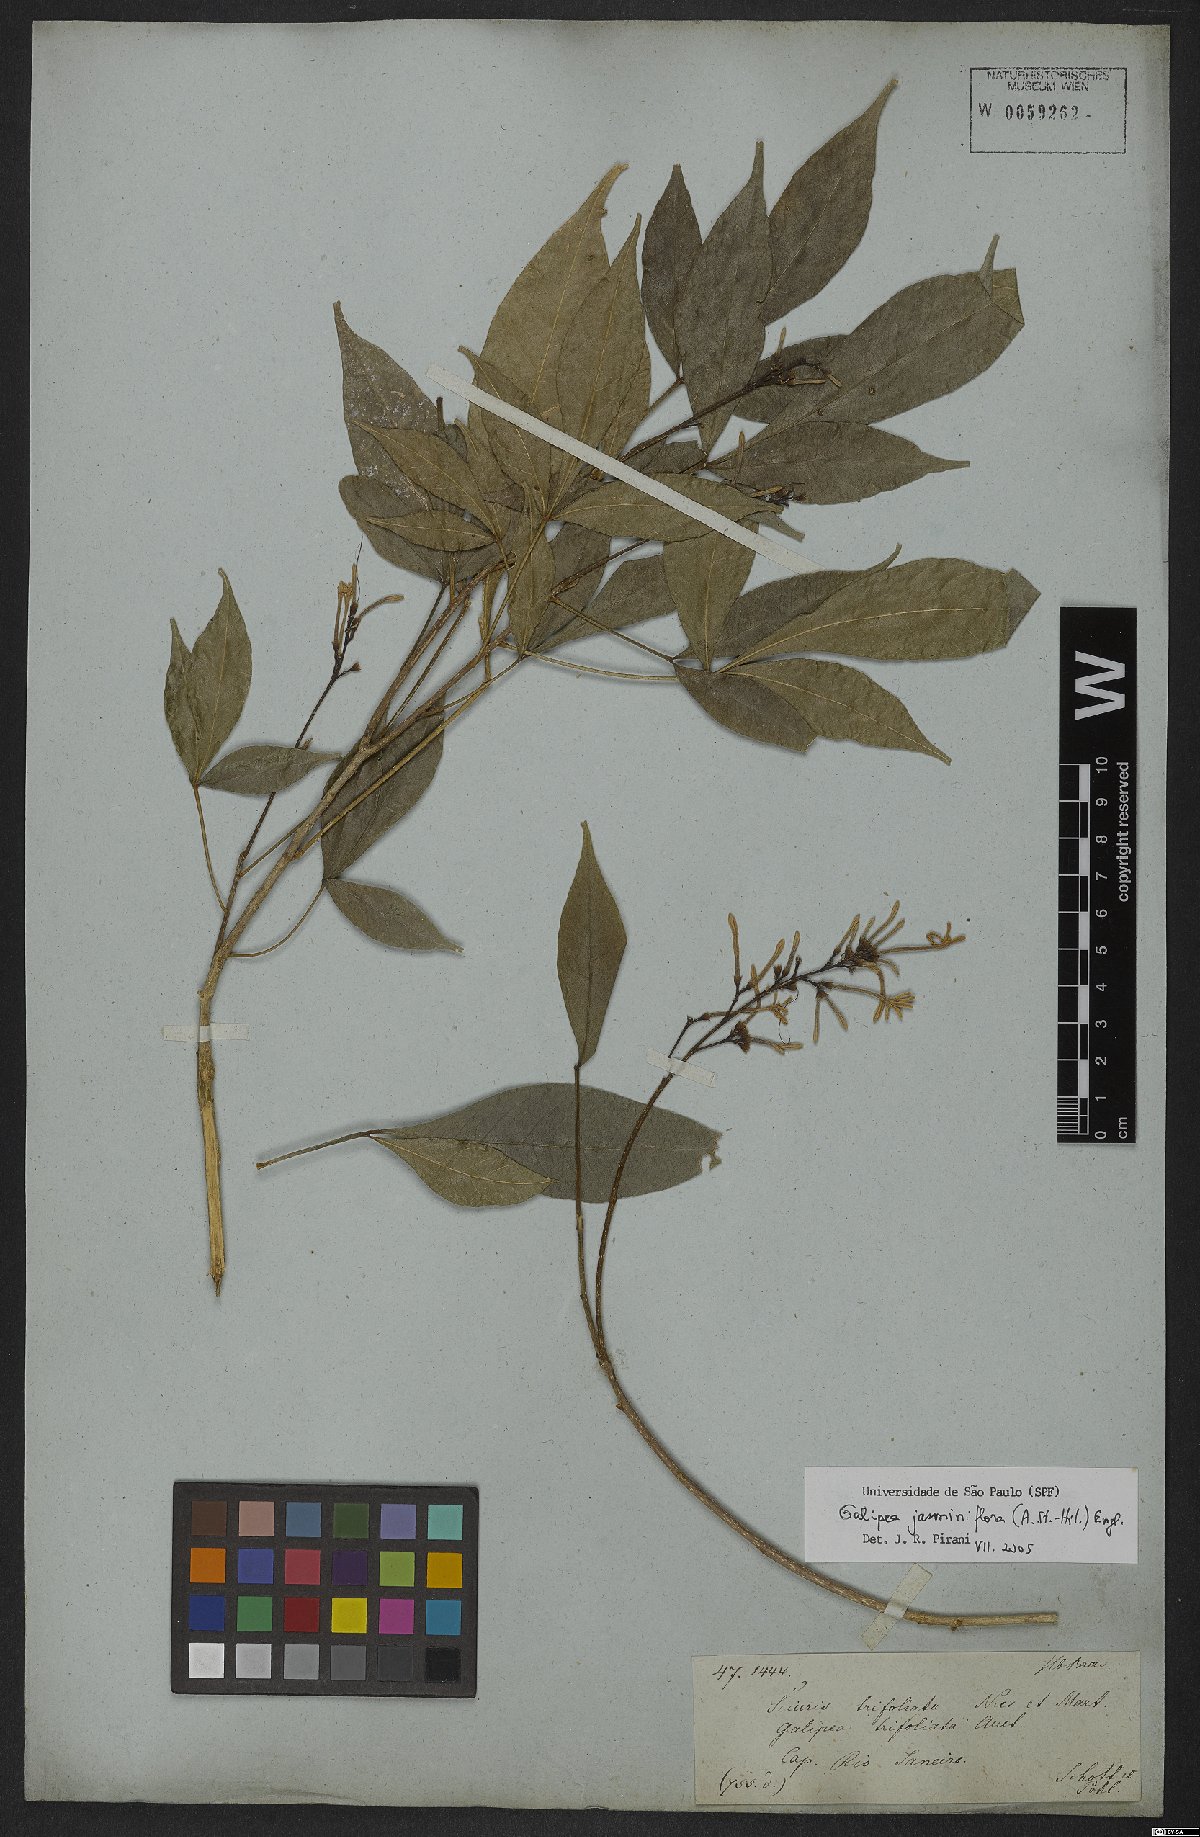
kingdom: Plantae
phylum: Tracheophyta
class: Magnoliopsida
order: Sapindales
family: Rutaceae
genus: Galipea
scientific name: Galipea jasminiflora
